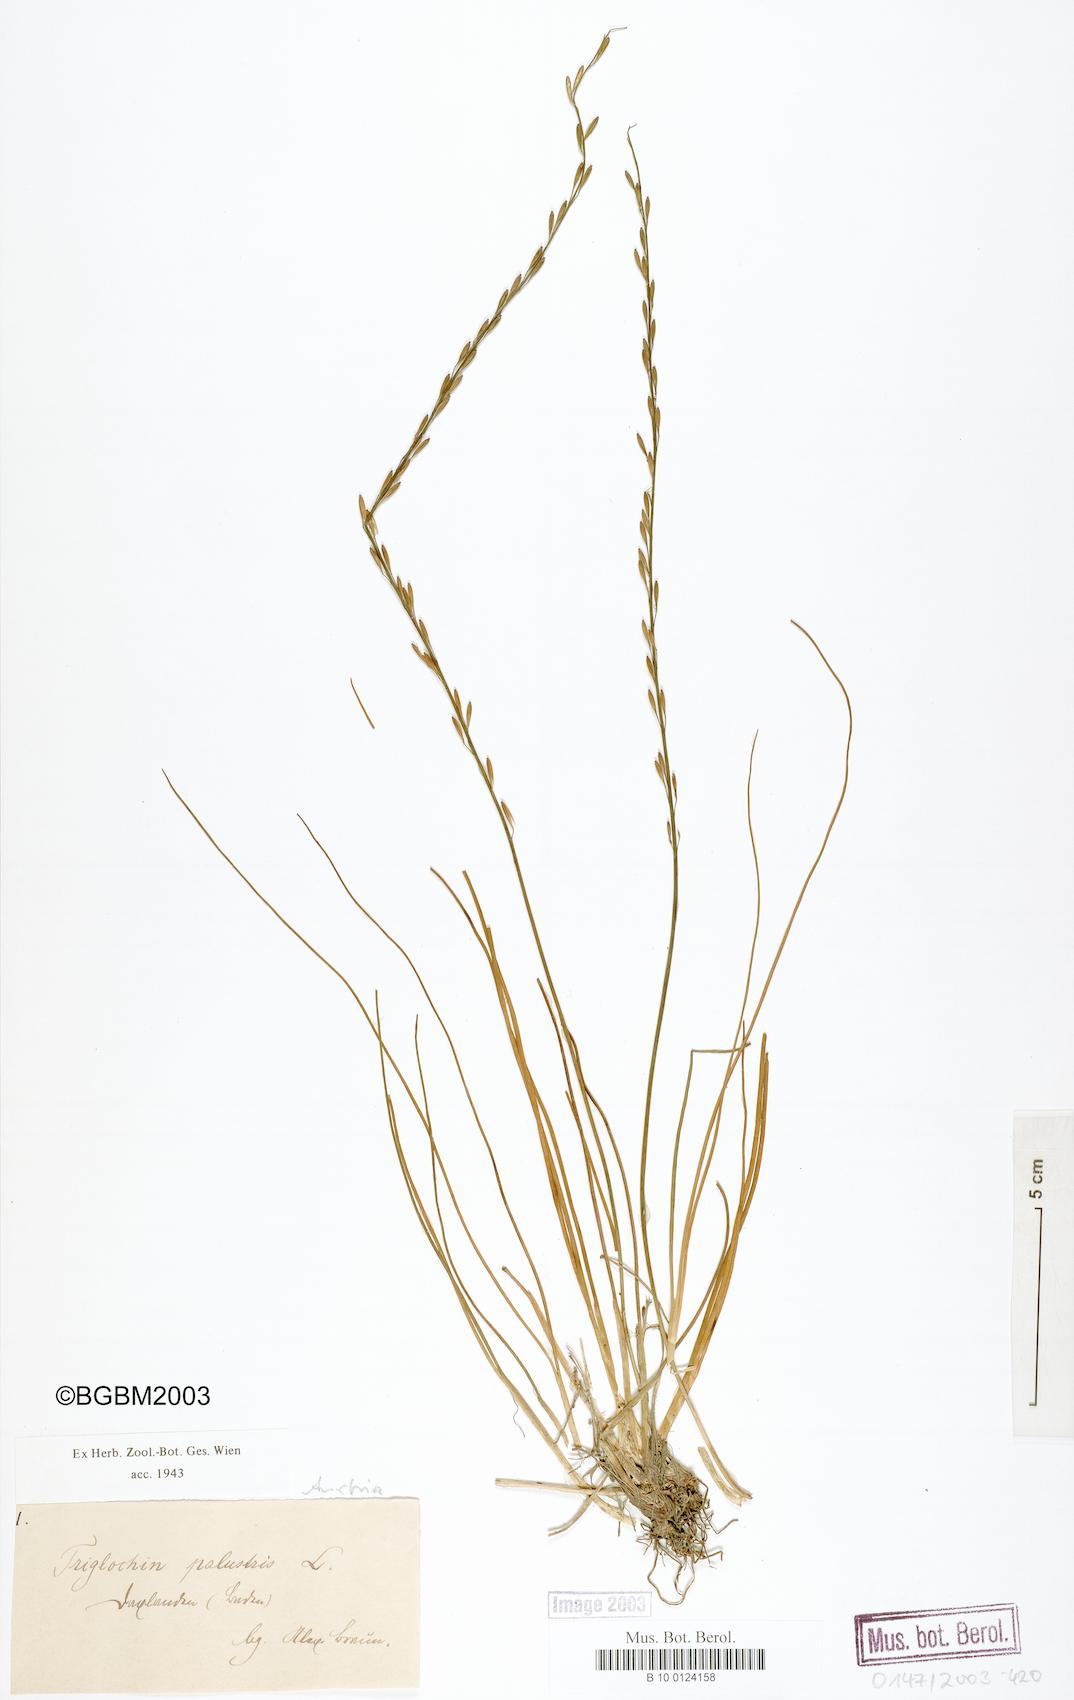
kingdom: Plantae
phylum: Tracheophyta
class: Liliopsida
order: Alismatales
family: Juncaginaceae
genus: Triglochin
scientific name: Triglochin palustris
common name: Marsh arrowgrass
